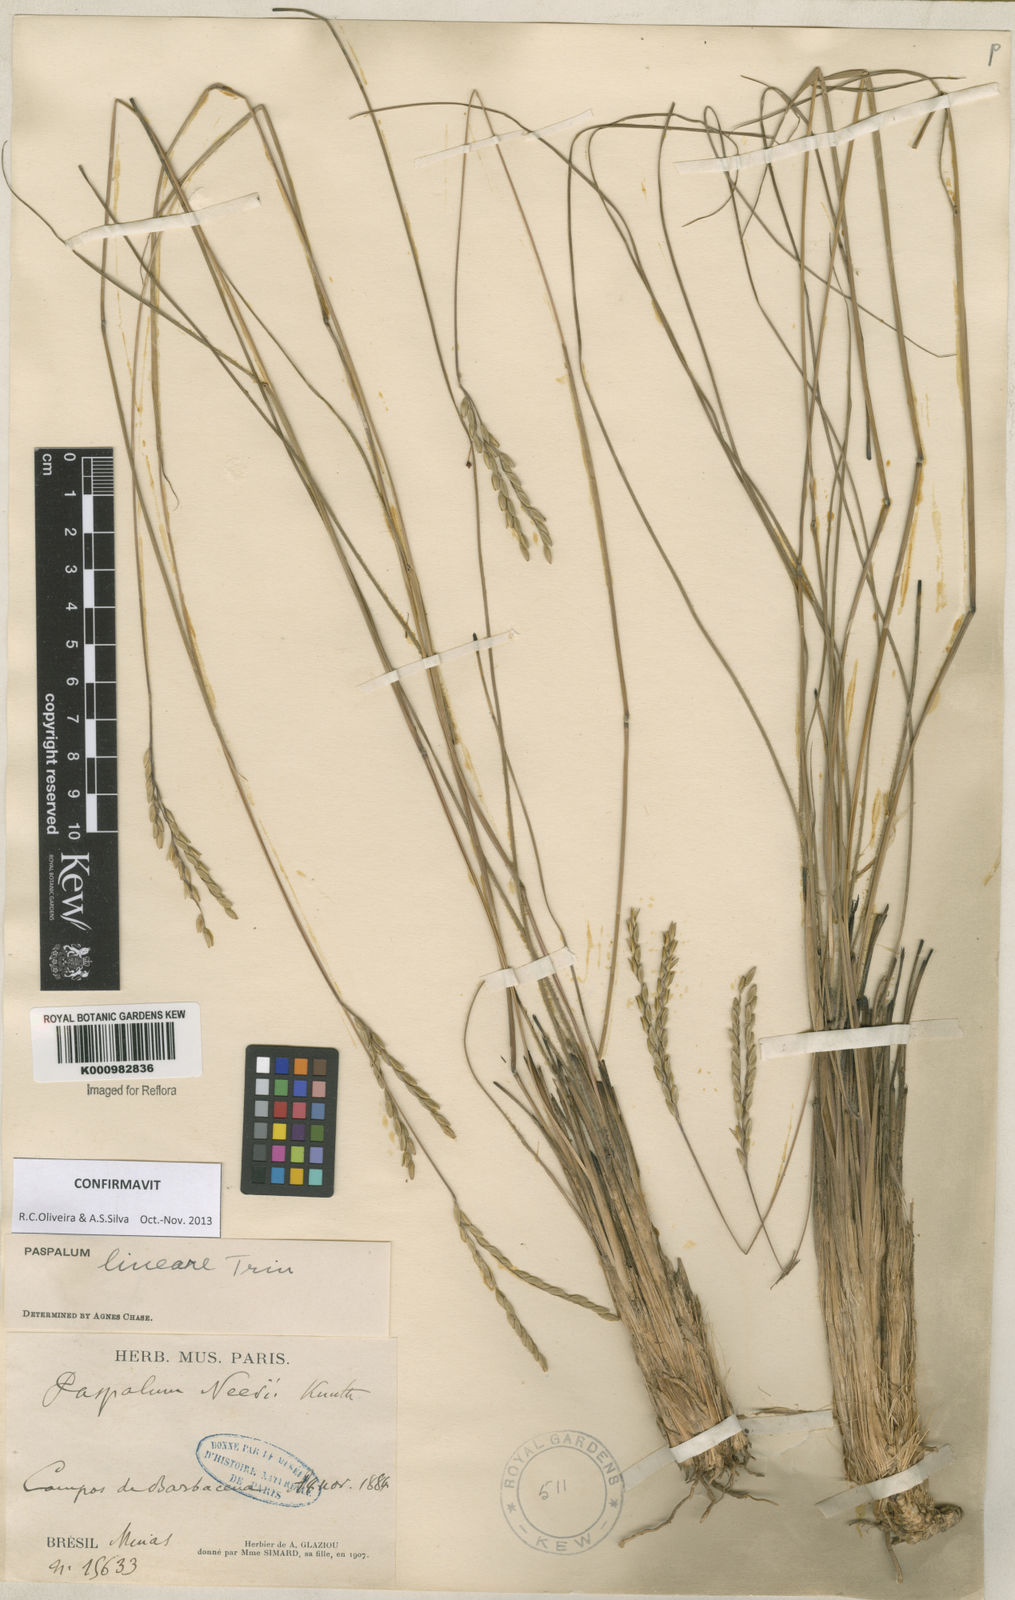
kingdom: Plantae
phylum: Tracheophyta
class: Liliopsida
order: Poales
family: Poaceae
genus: Paspalum
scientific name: Paspalum lineare
